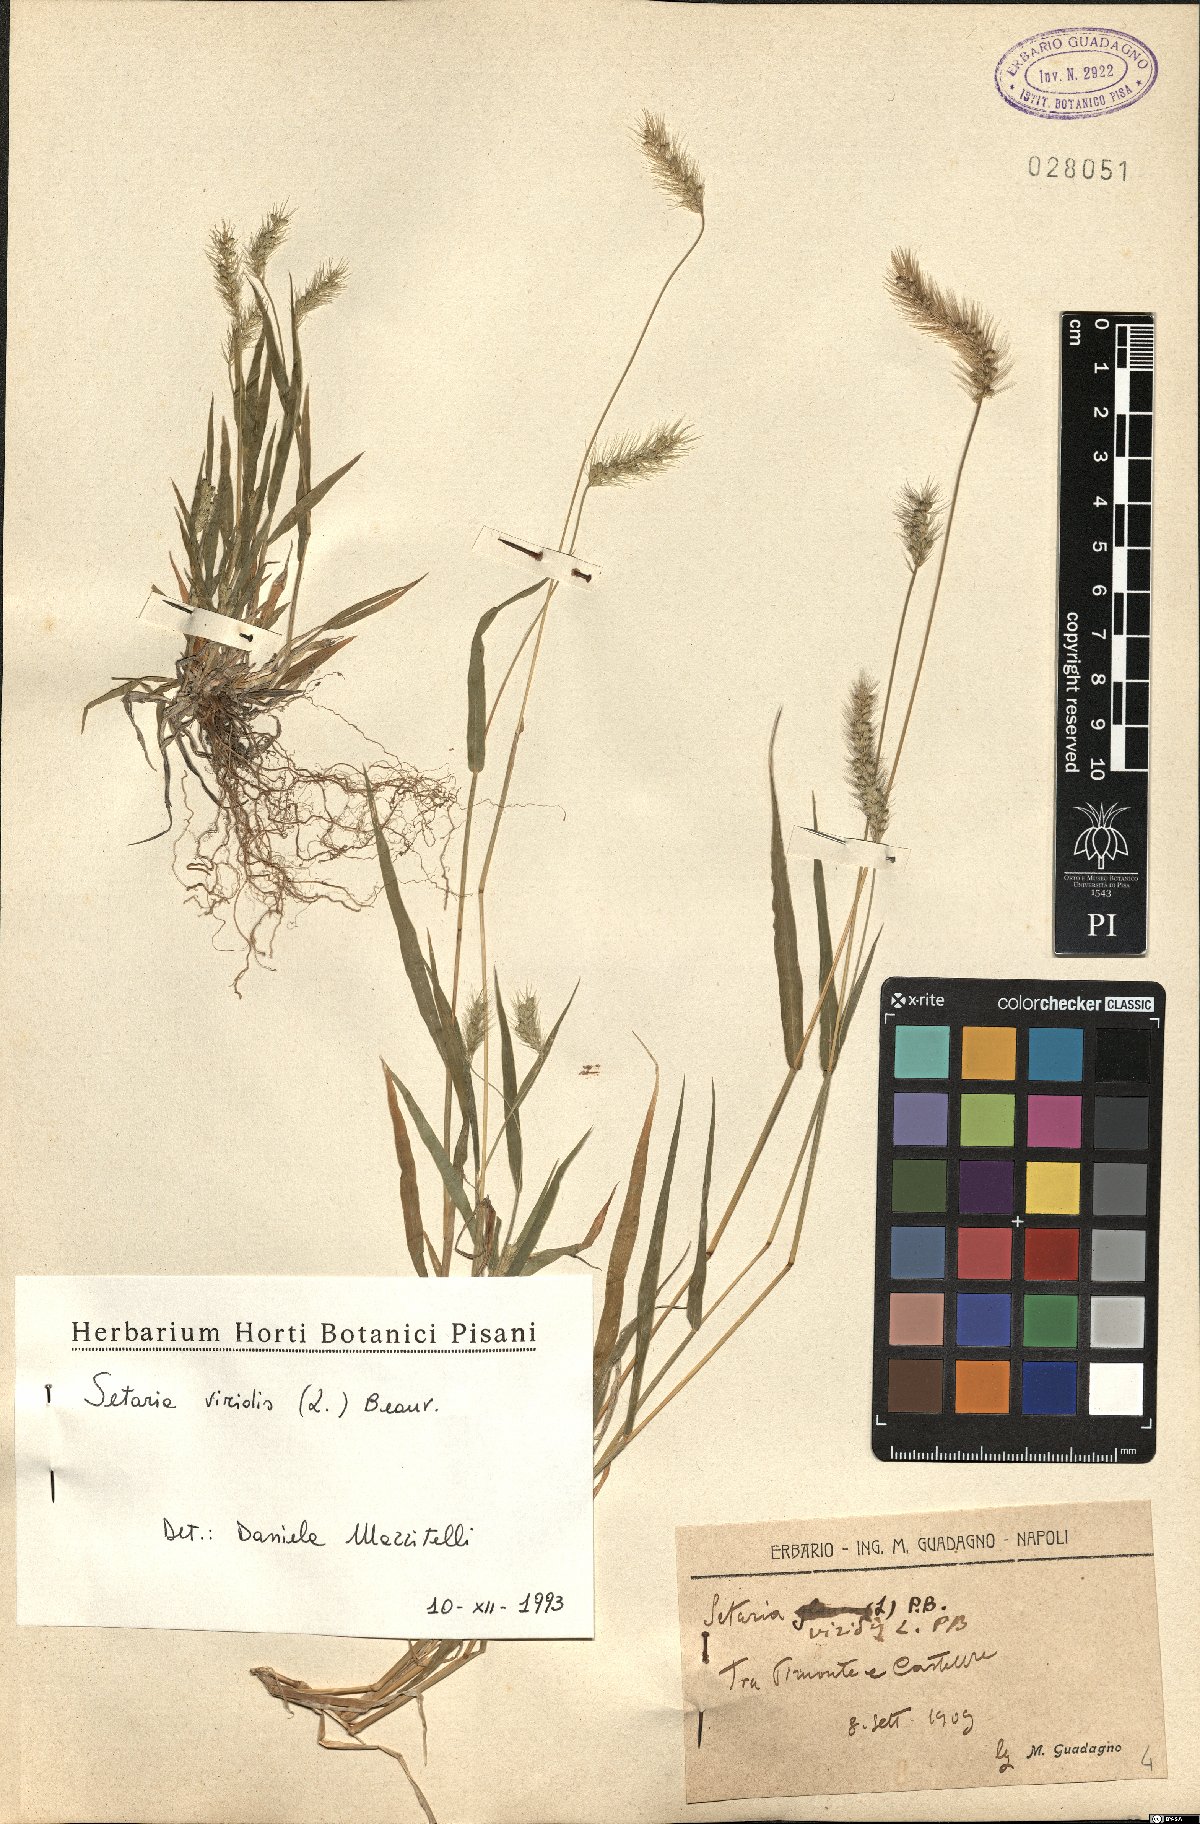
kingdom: Plantae
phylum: Tracheophyta
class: Liliopsida
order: Poales
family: Poaceae
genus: Setaria
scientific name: Setaria viridis
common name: Green bristlegrass
